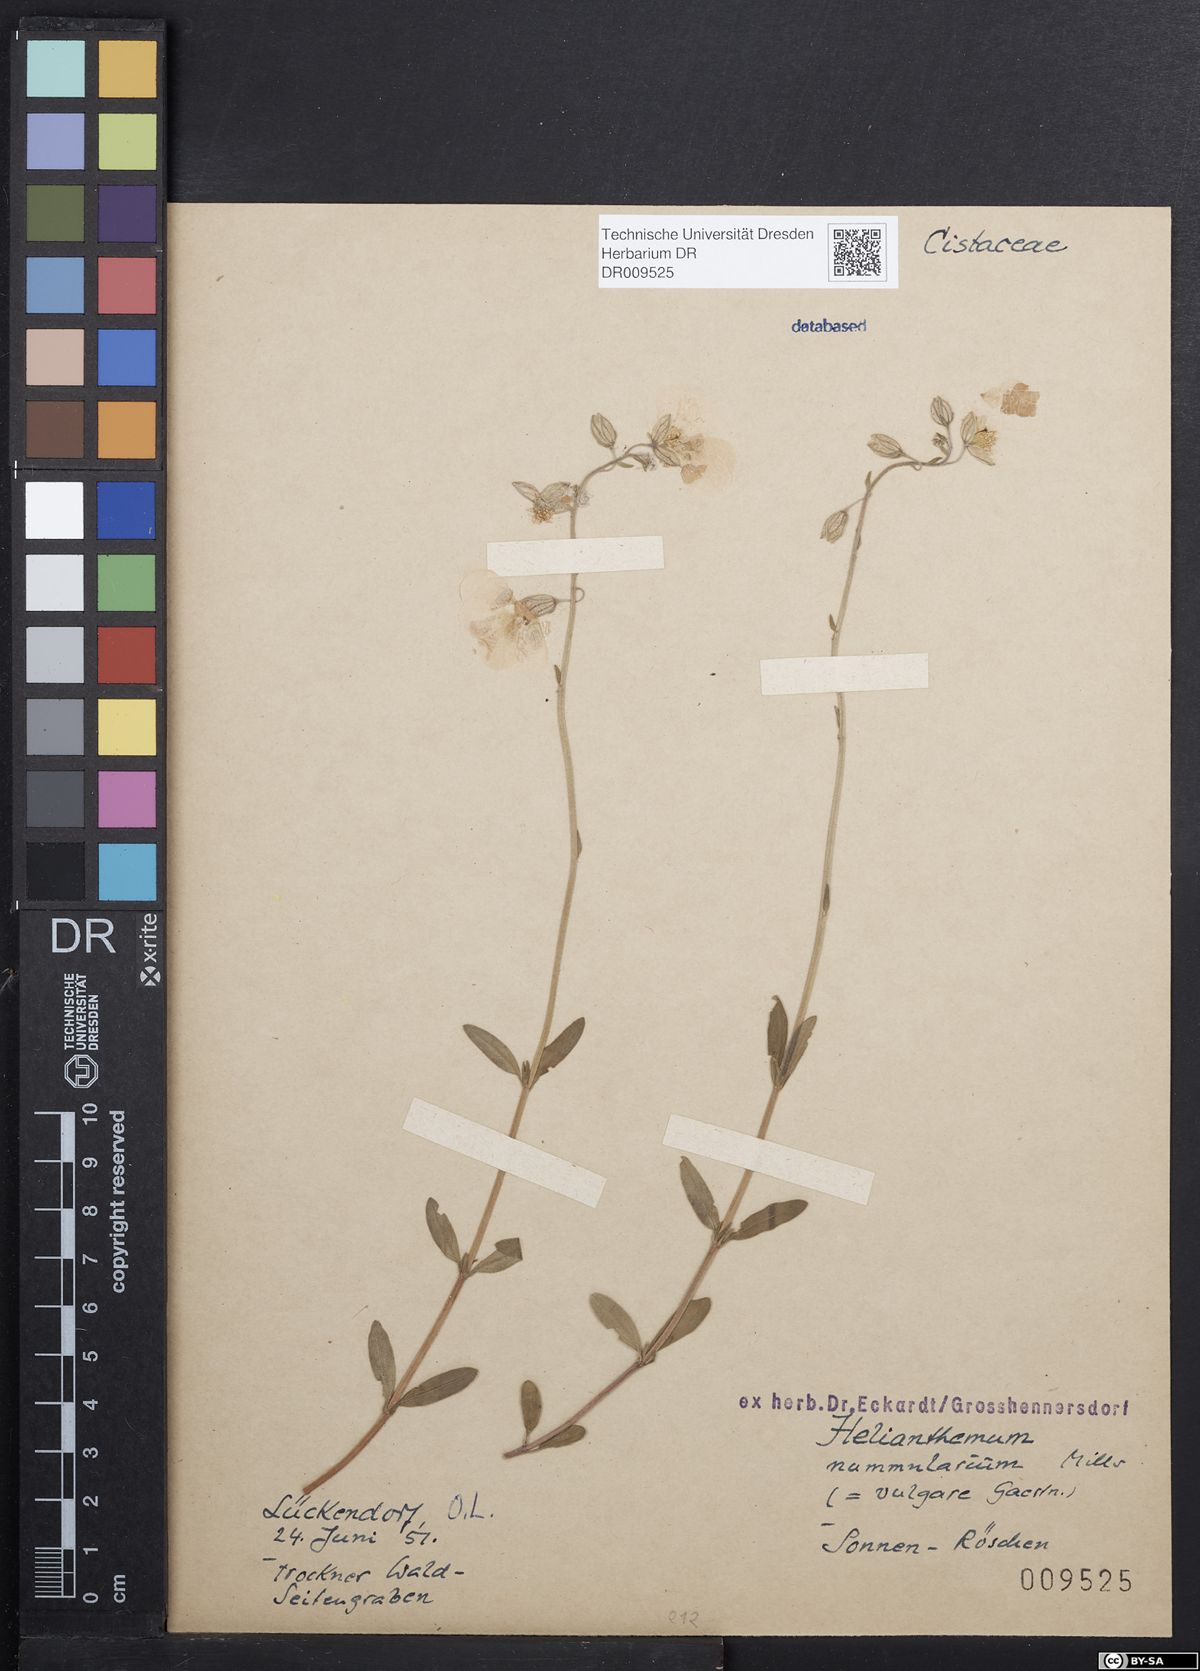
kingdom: Plantae
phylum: Tracheophyta
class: Magnoliopsida
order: Malvales
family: Cistaceae
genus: Helianthemum
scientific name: Helianthemum nummularium
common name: Common rock-rose
